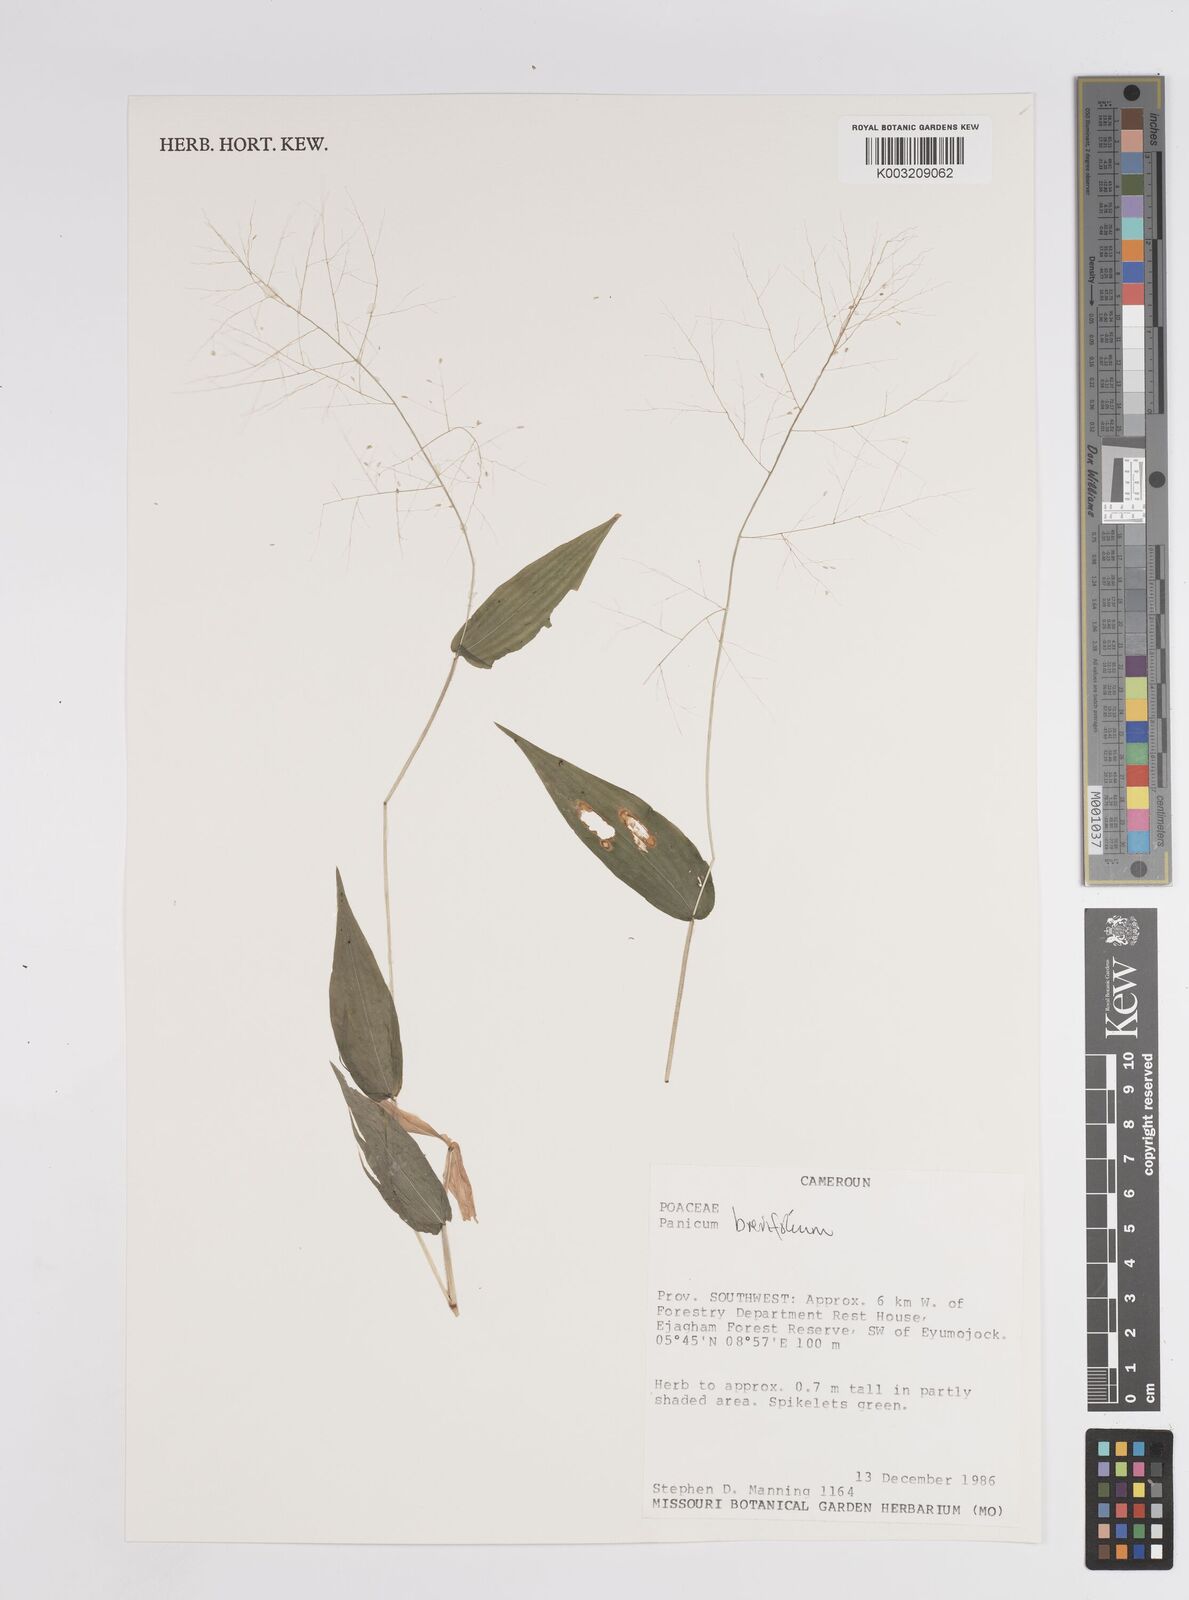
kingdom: Plantae
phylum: Tracheophyta
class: Liliopsida
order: Poales
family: Poaceae
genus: Panicum
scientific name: Panicum brevifolium
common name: Shortleaf panic grass
